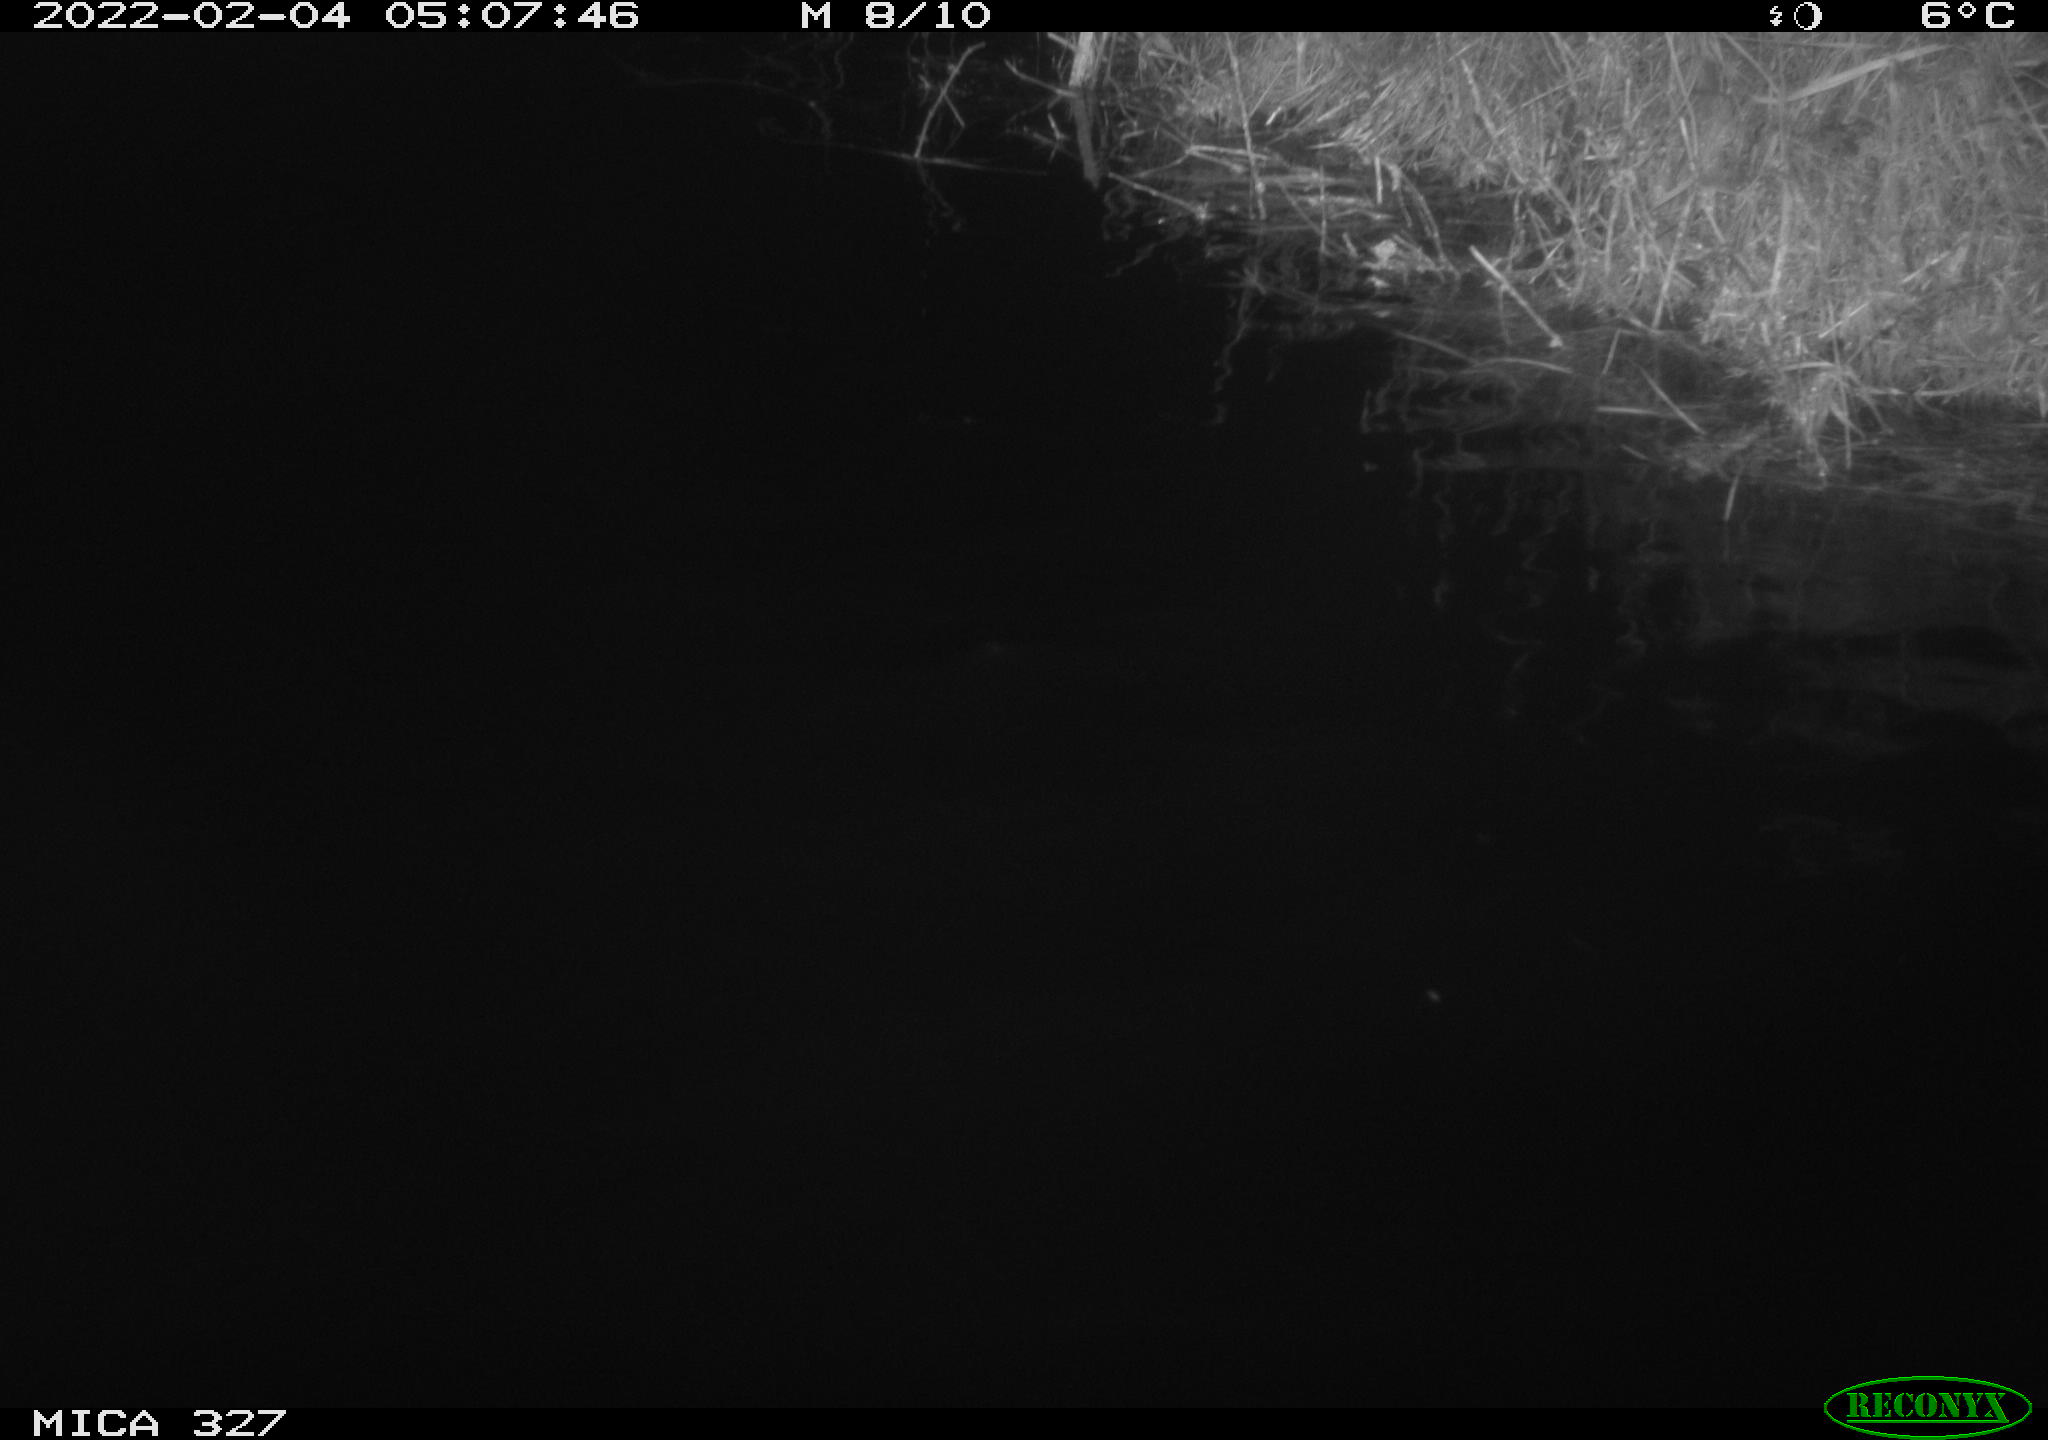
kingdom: Animalia
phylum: Chordata
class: Mammalia
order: Rodentia
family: Muridae
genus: Rattus
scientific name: Rattus norvegicus
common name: Brown rat
